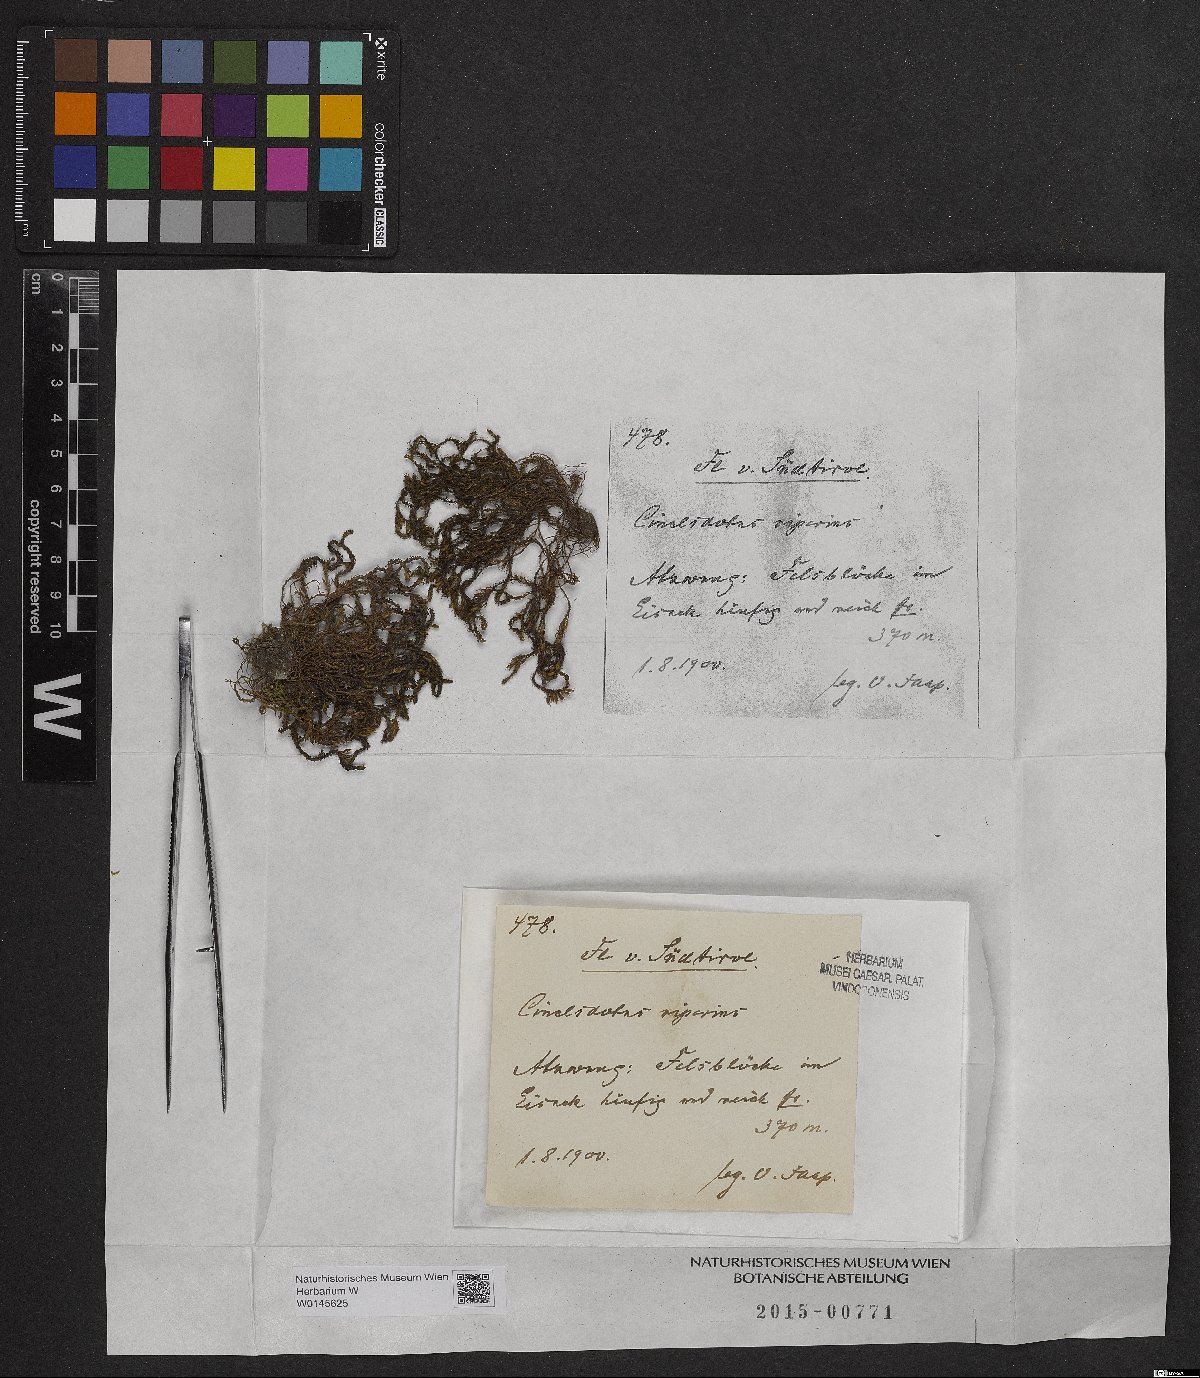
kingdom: Plantae
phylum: Bryophyta
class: Bryopsida
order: Pottiales
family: Pottiaceae
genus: Cinclidotus
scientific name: Cinclidotus riparius
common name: Fountain lattice-moss
